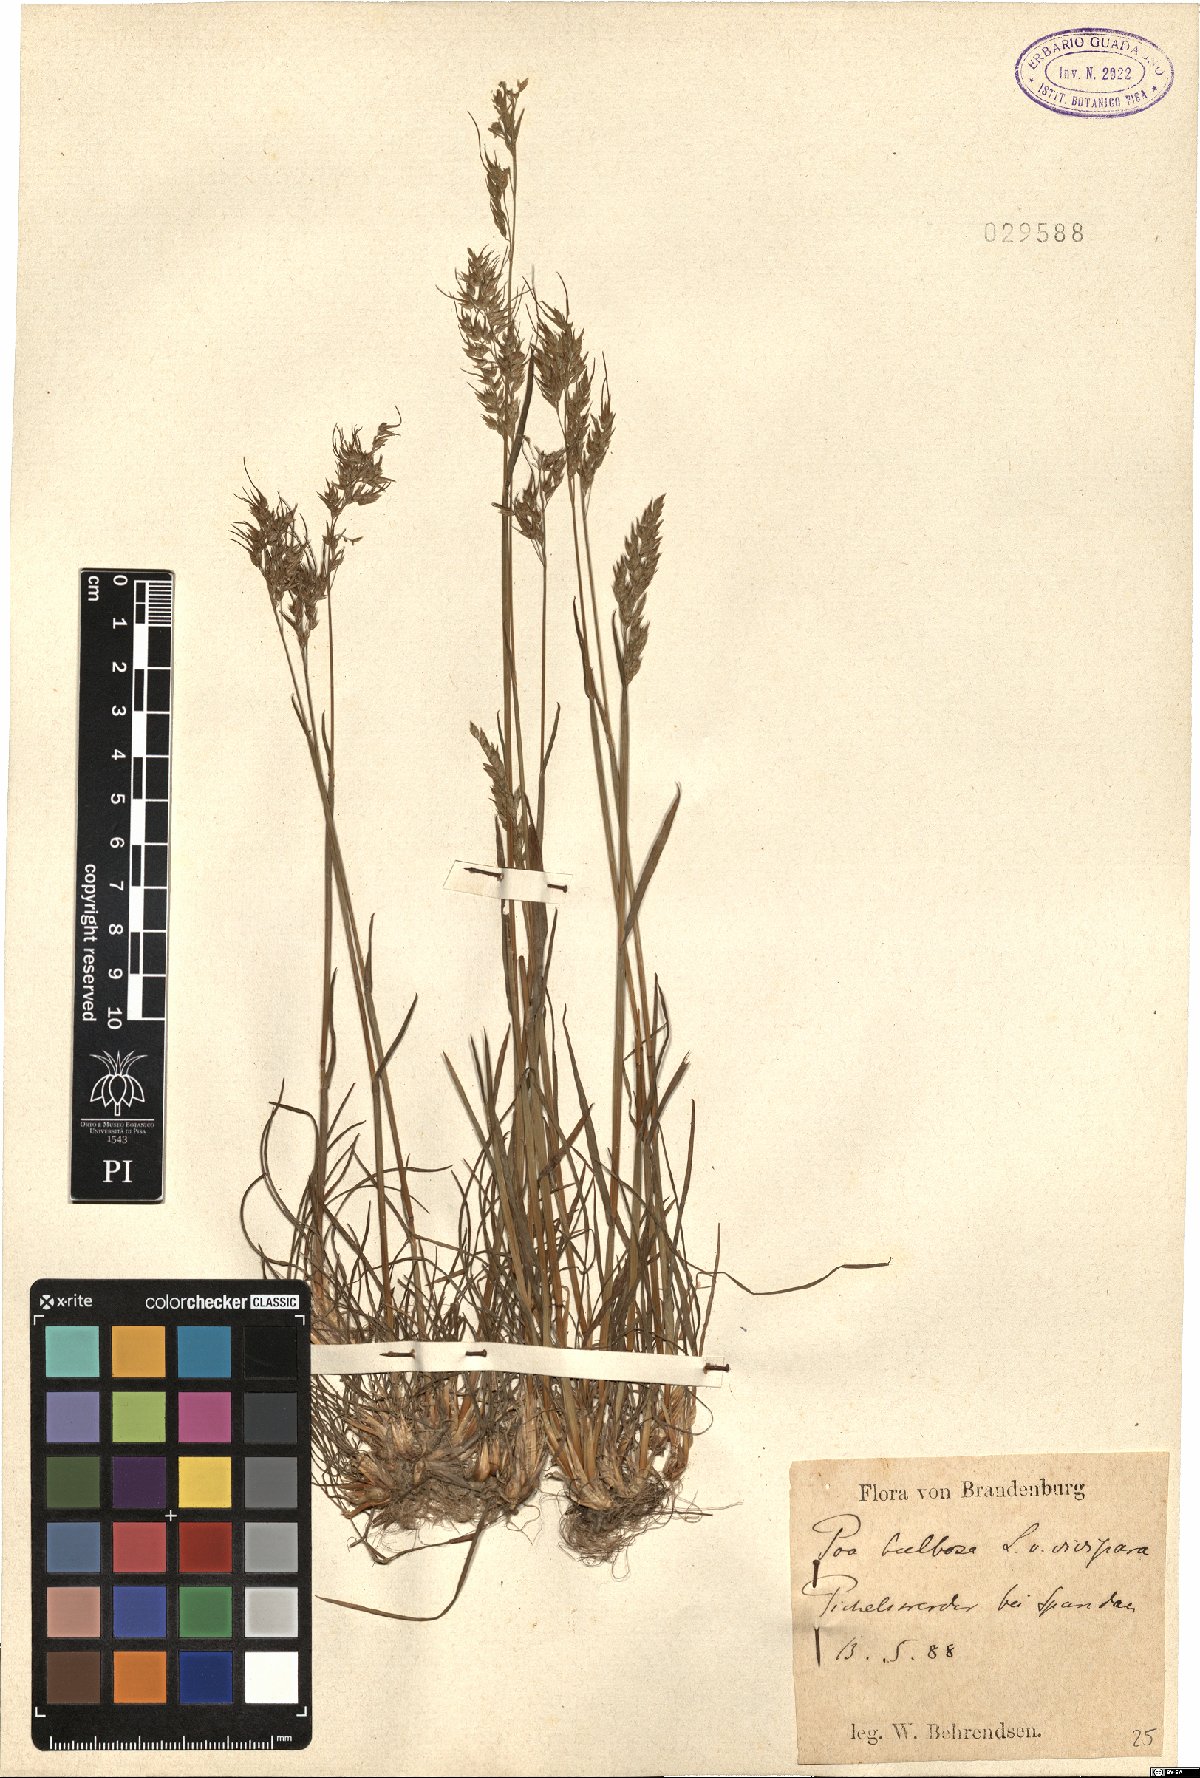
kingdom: Plantae
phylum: Tracheophyta
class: Liliopsida
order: Poales
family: Poaceae
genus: Poa
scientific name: Poa bulbosa
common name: Bulbous bluegrass
